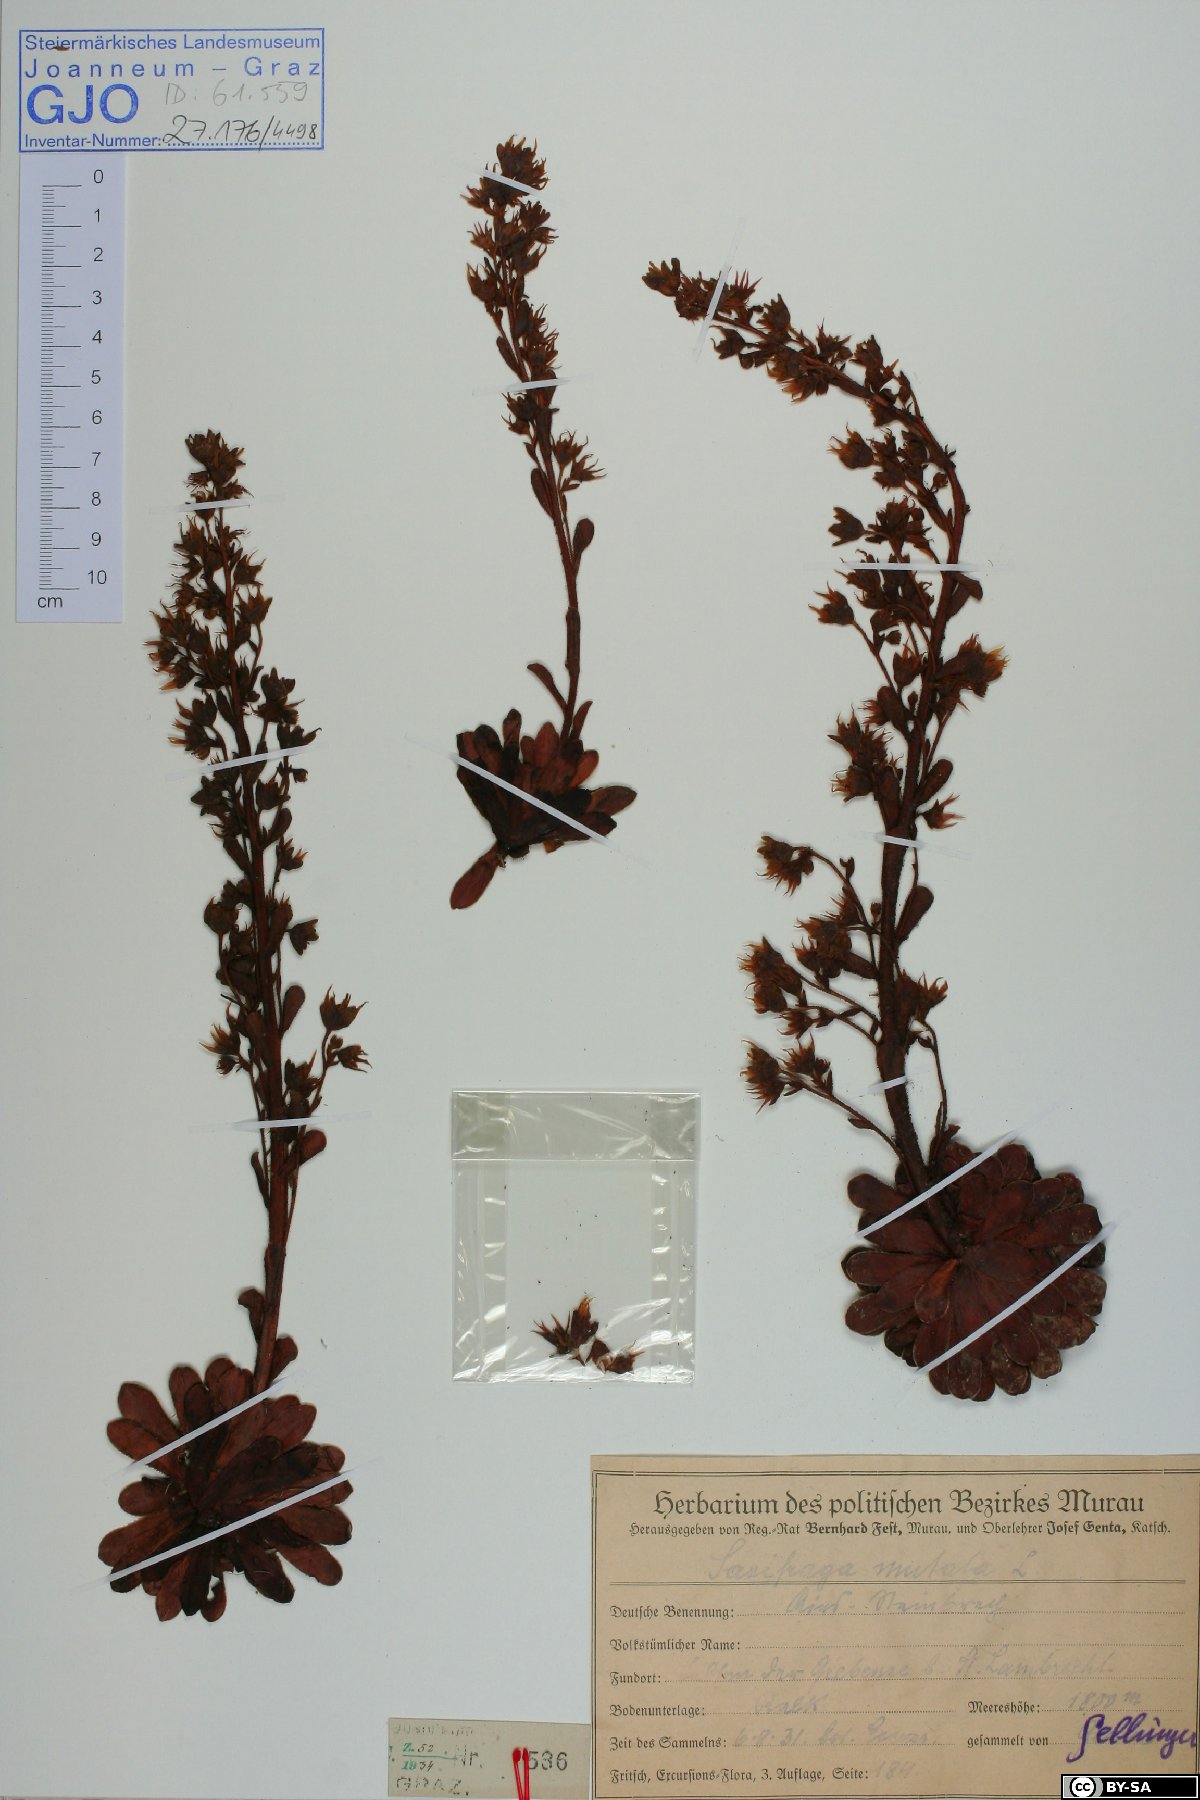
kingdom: Plantae
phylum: Tracheophyta
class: Magnoliopsida
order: Saxifragales
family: Saxifragaceae
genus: Saxifraga
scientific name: Saxifraga mutata
